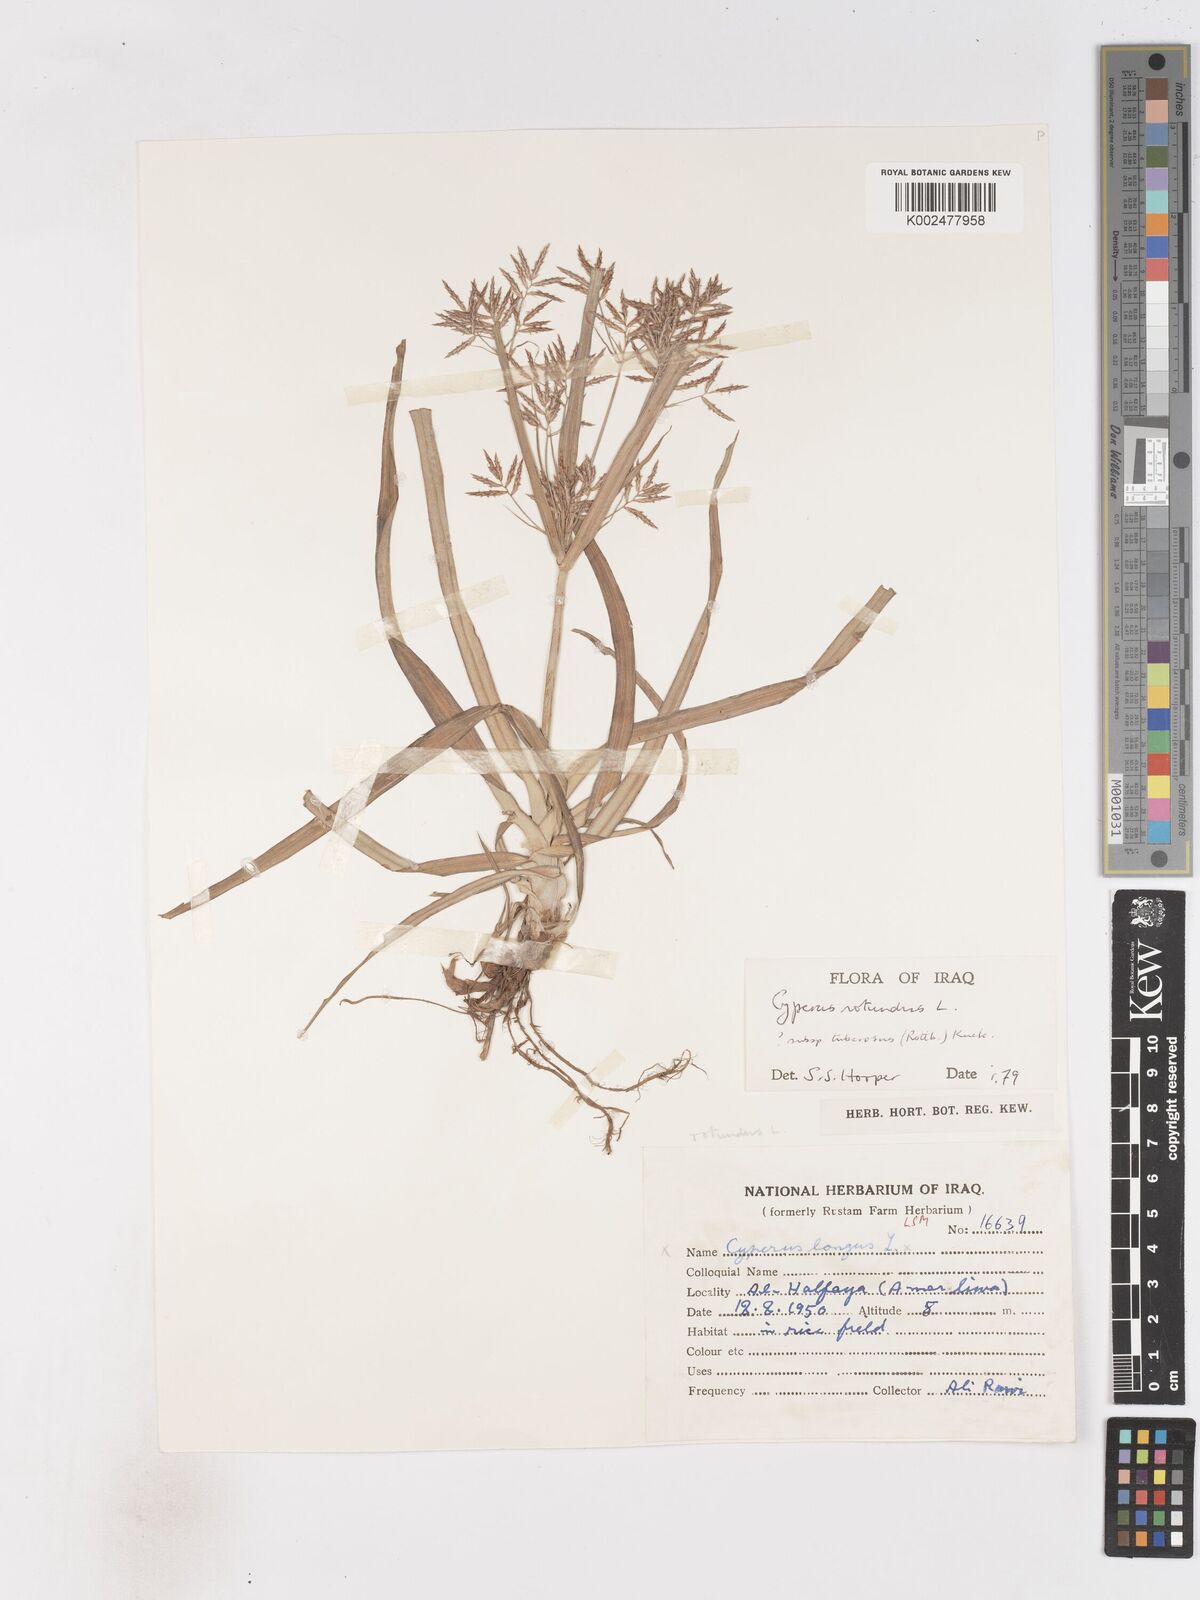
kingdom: Plantae
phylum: Tracheophyta
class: Liliopsida
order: Poales
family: Cyperaceae
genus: Cyperus
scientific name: Cyperus rotundus
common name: Nutgrass
